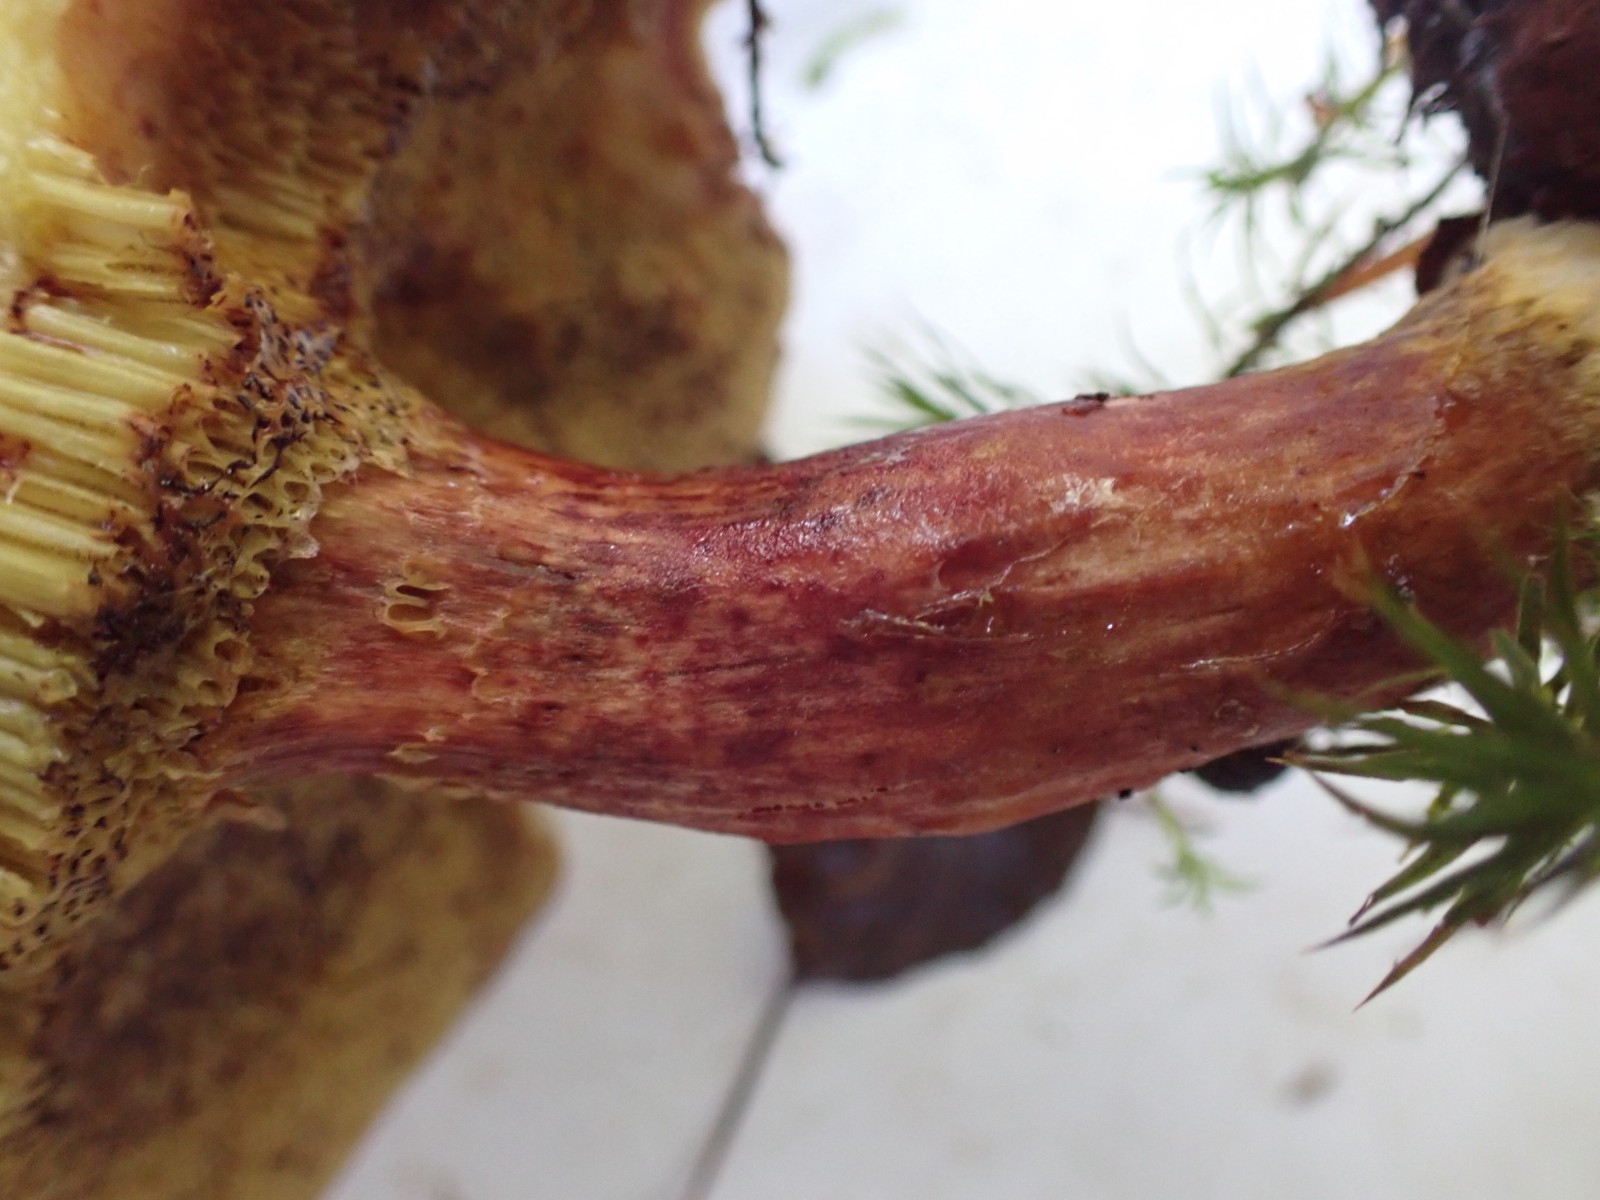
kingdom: Fungi
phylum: Basidiomycota
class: Agaricomycetes
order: Boletales
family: Boletaceae
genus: Xerocomellus
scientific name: Xerocomellus pruinatus
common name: dugget rørhat
